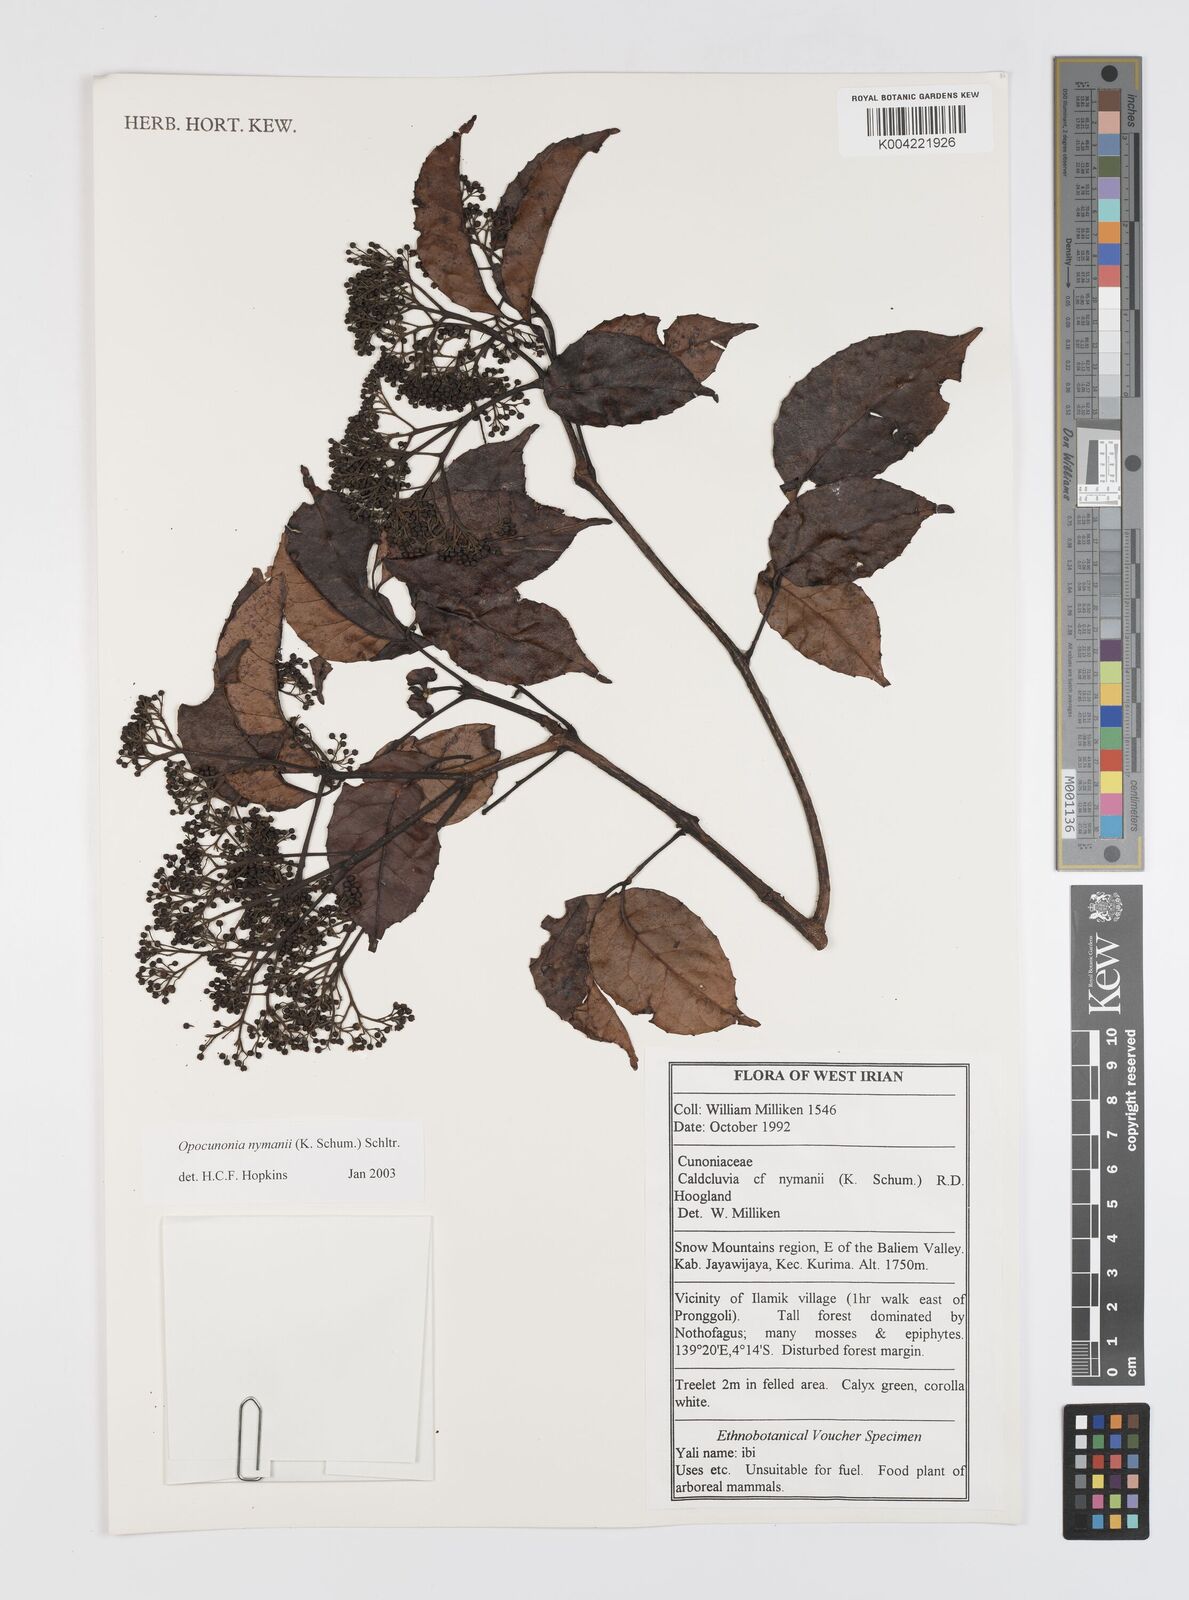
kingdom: Plantae
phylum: Tracheophyta
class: Magnoliopsida
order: Oxalidales
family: Cunoniaceae
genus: Opocunonia
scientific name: Opocunonia nymanii
